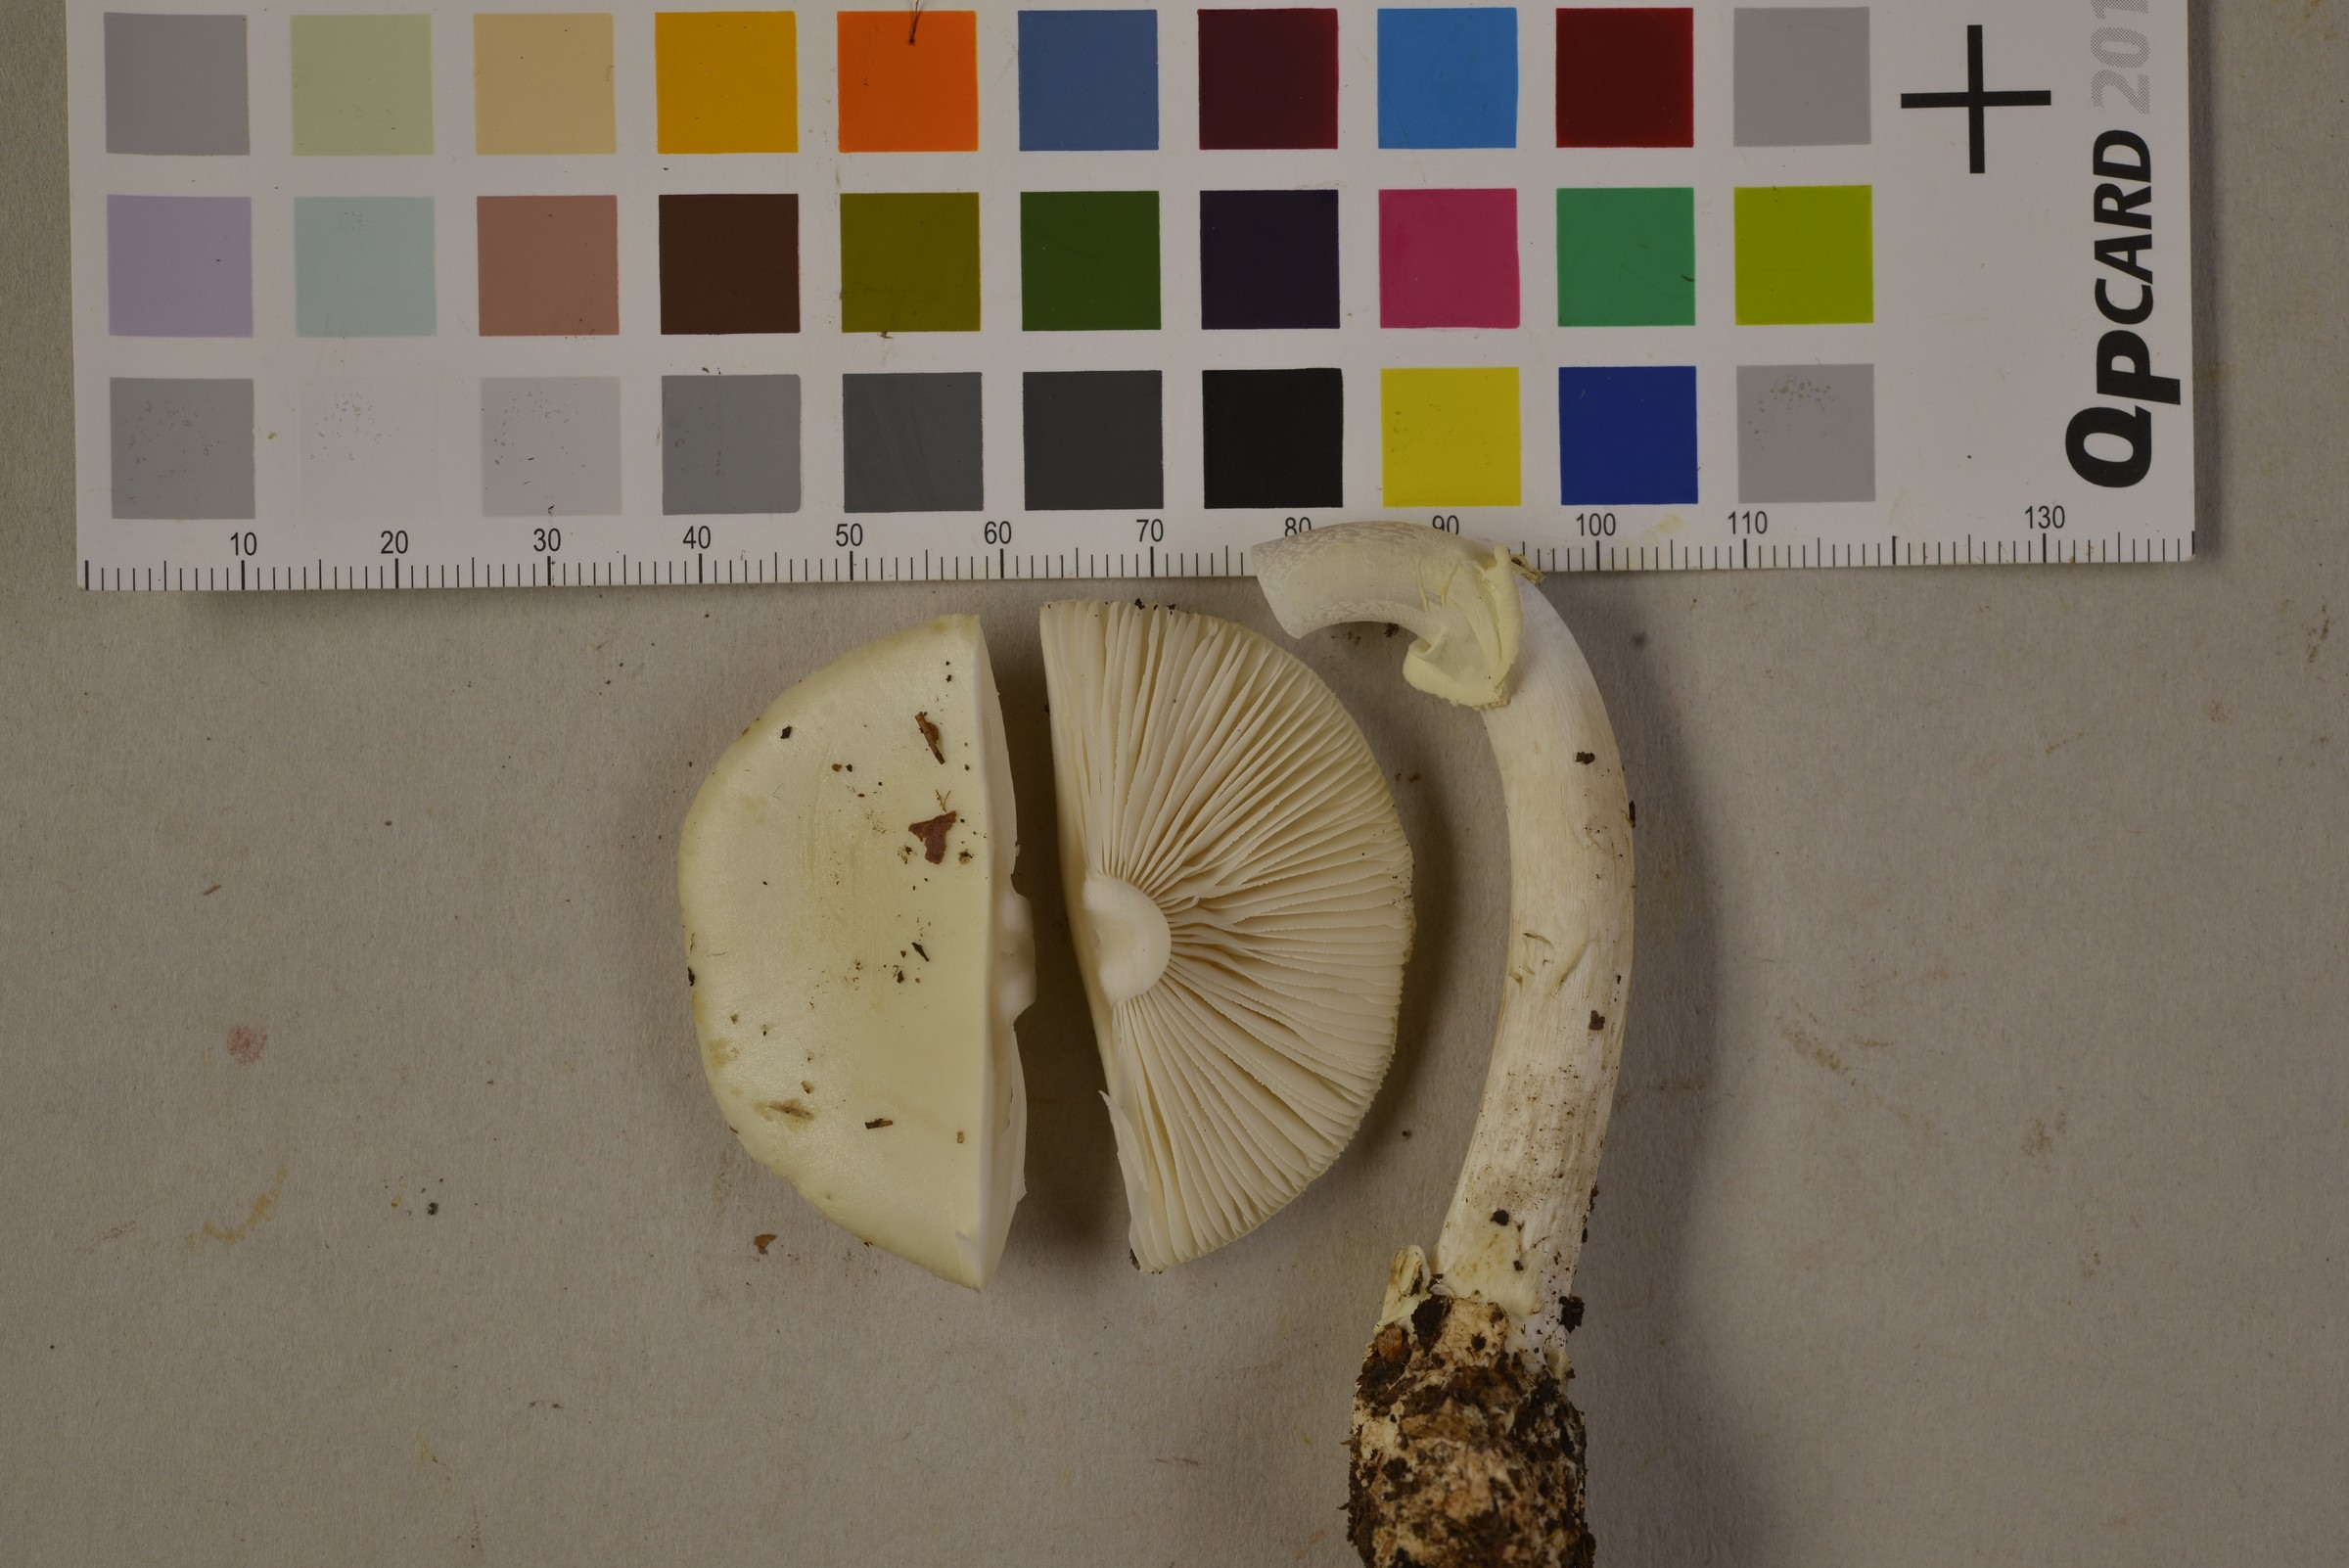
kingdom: Fungi
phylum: Basidiomycota
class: Agaricomycetes
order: Agaricales
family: Amanitaceae
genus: Amanita
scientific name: Amanita citrina
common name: False death-cap
